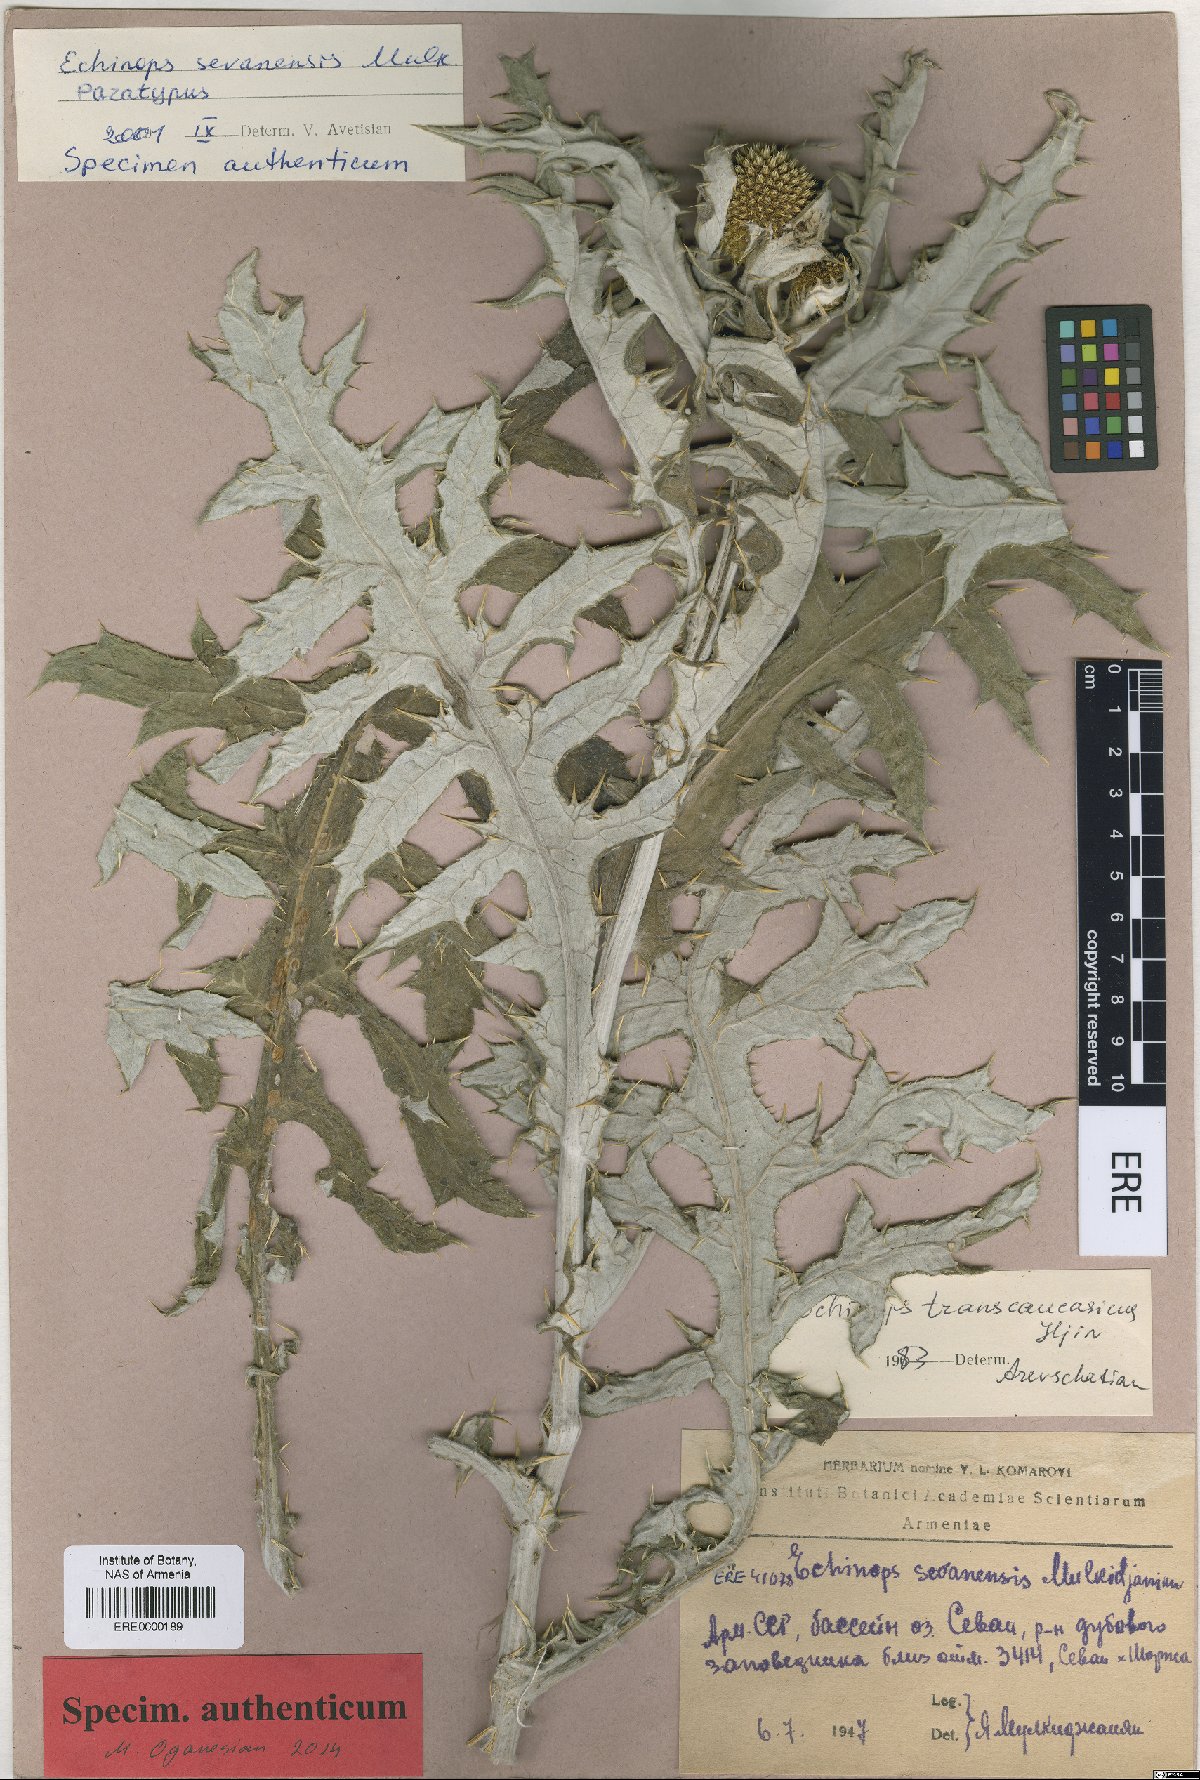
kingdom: Plantae
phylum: Tracheophyta
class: Magnoliopsida
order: Asterales
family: Asteraceae
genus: Echinops
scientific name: Echinops transcaucasicus
